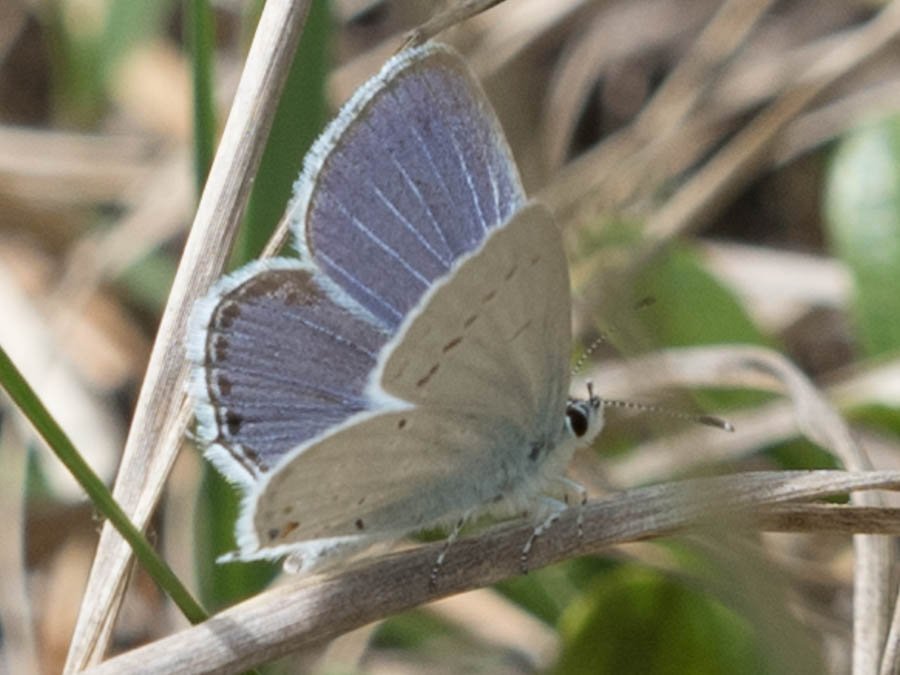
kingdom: Animalia
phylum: Arthropoda
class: Insecta
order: Lepidoptera
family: Lycaenidae
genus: Elkalyce
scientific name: Elkalyce amyntula
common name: Western Tailed-Blue
